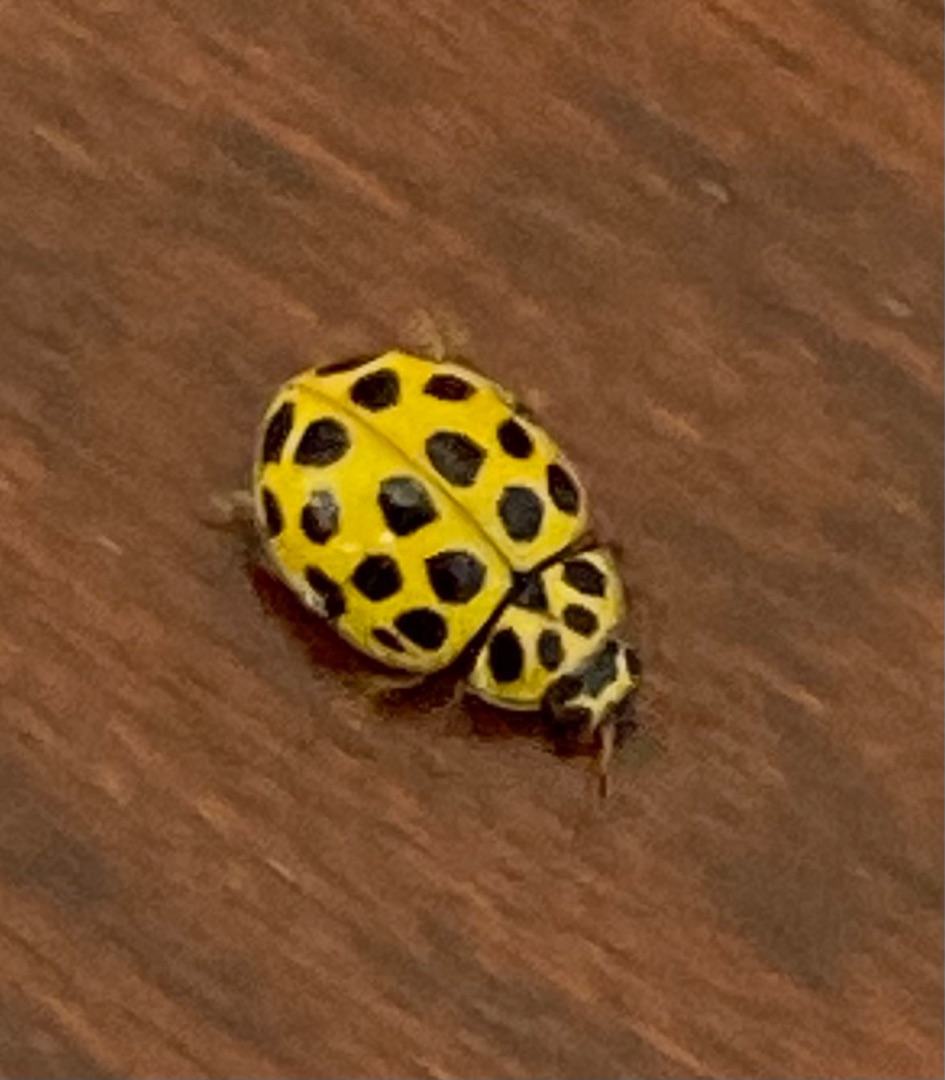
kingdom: Animalia
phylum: Arthropoda
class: Insecta
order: Coleoptera
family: Coccinellidae
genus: Psyllobora
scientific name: Psyllobora vigintiduopunctata
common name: Toogtyveplettet mariehøne
